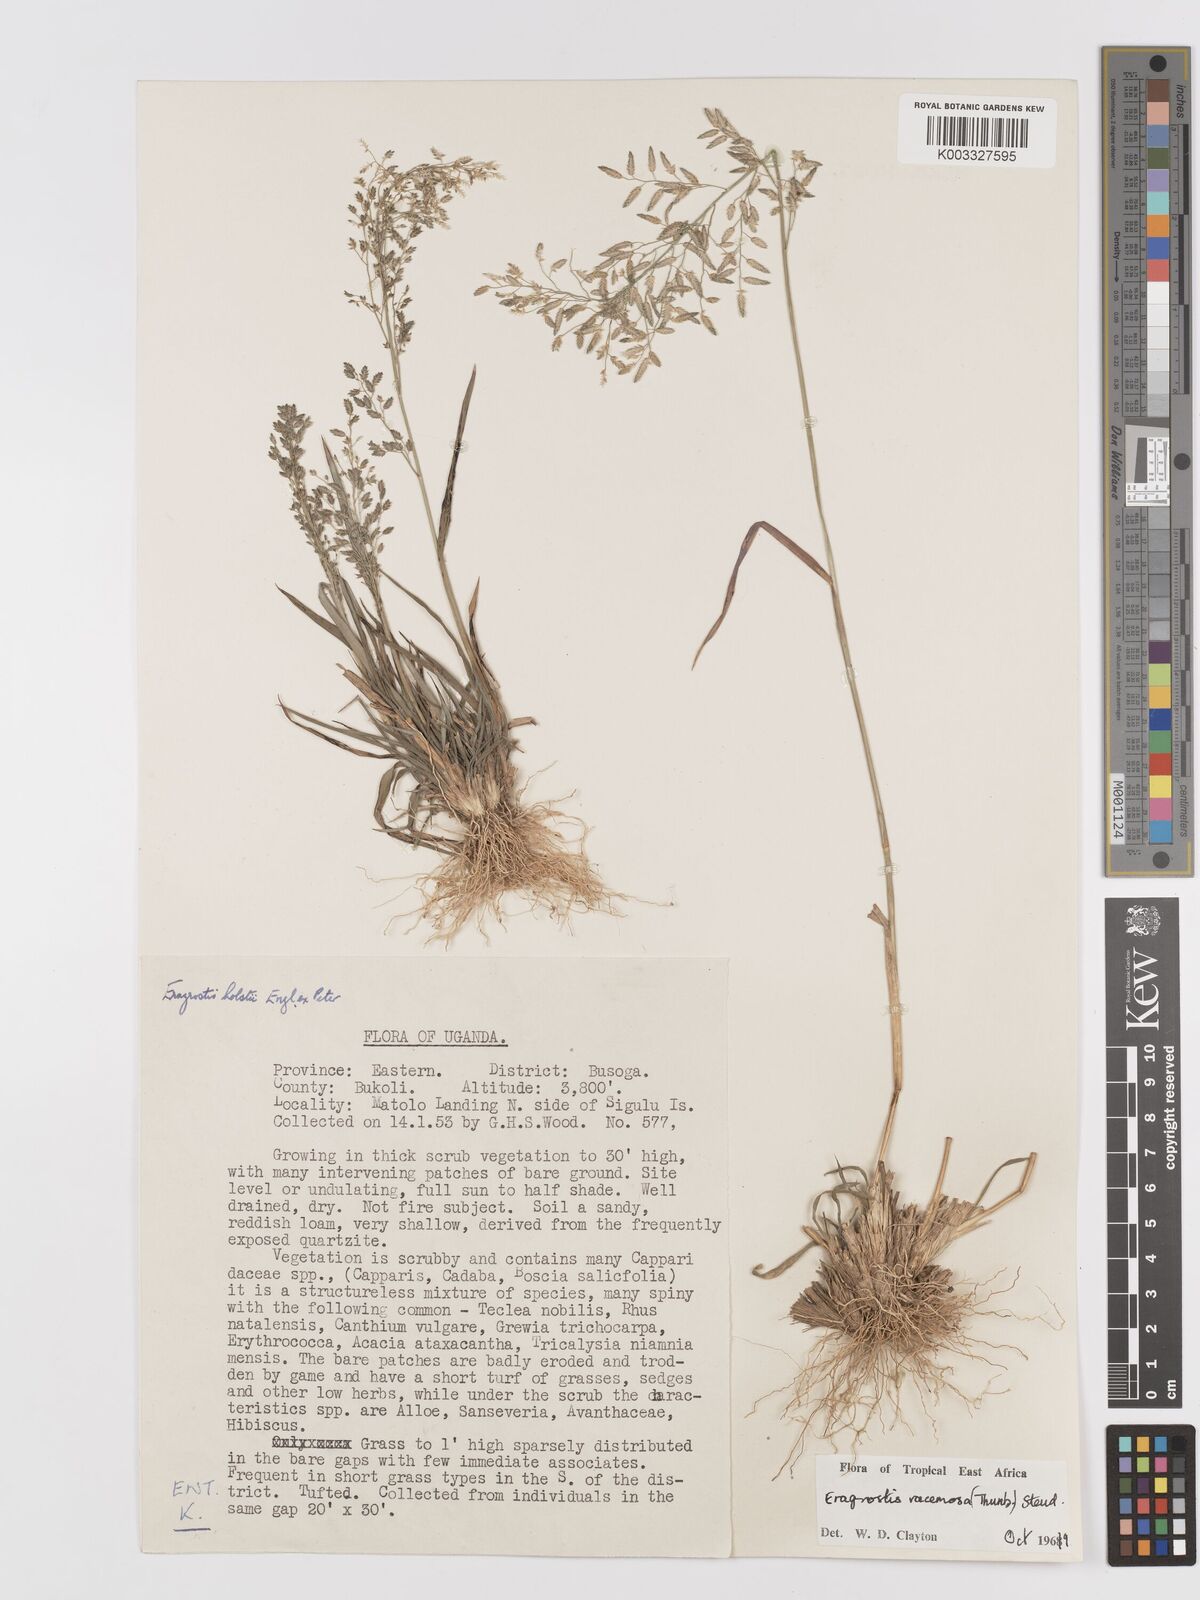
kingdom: Plantae
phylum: Tracheophyta
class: Liliopsida
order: Poales
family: Poaceae
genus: Eragrostis
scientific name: Eragrostis racemosa
